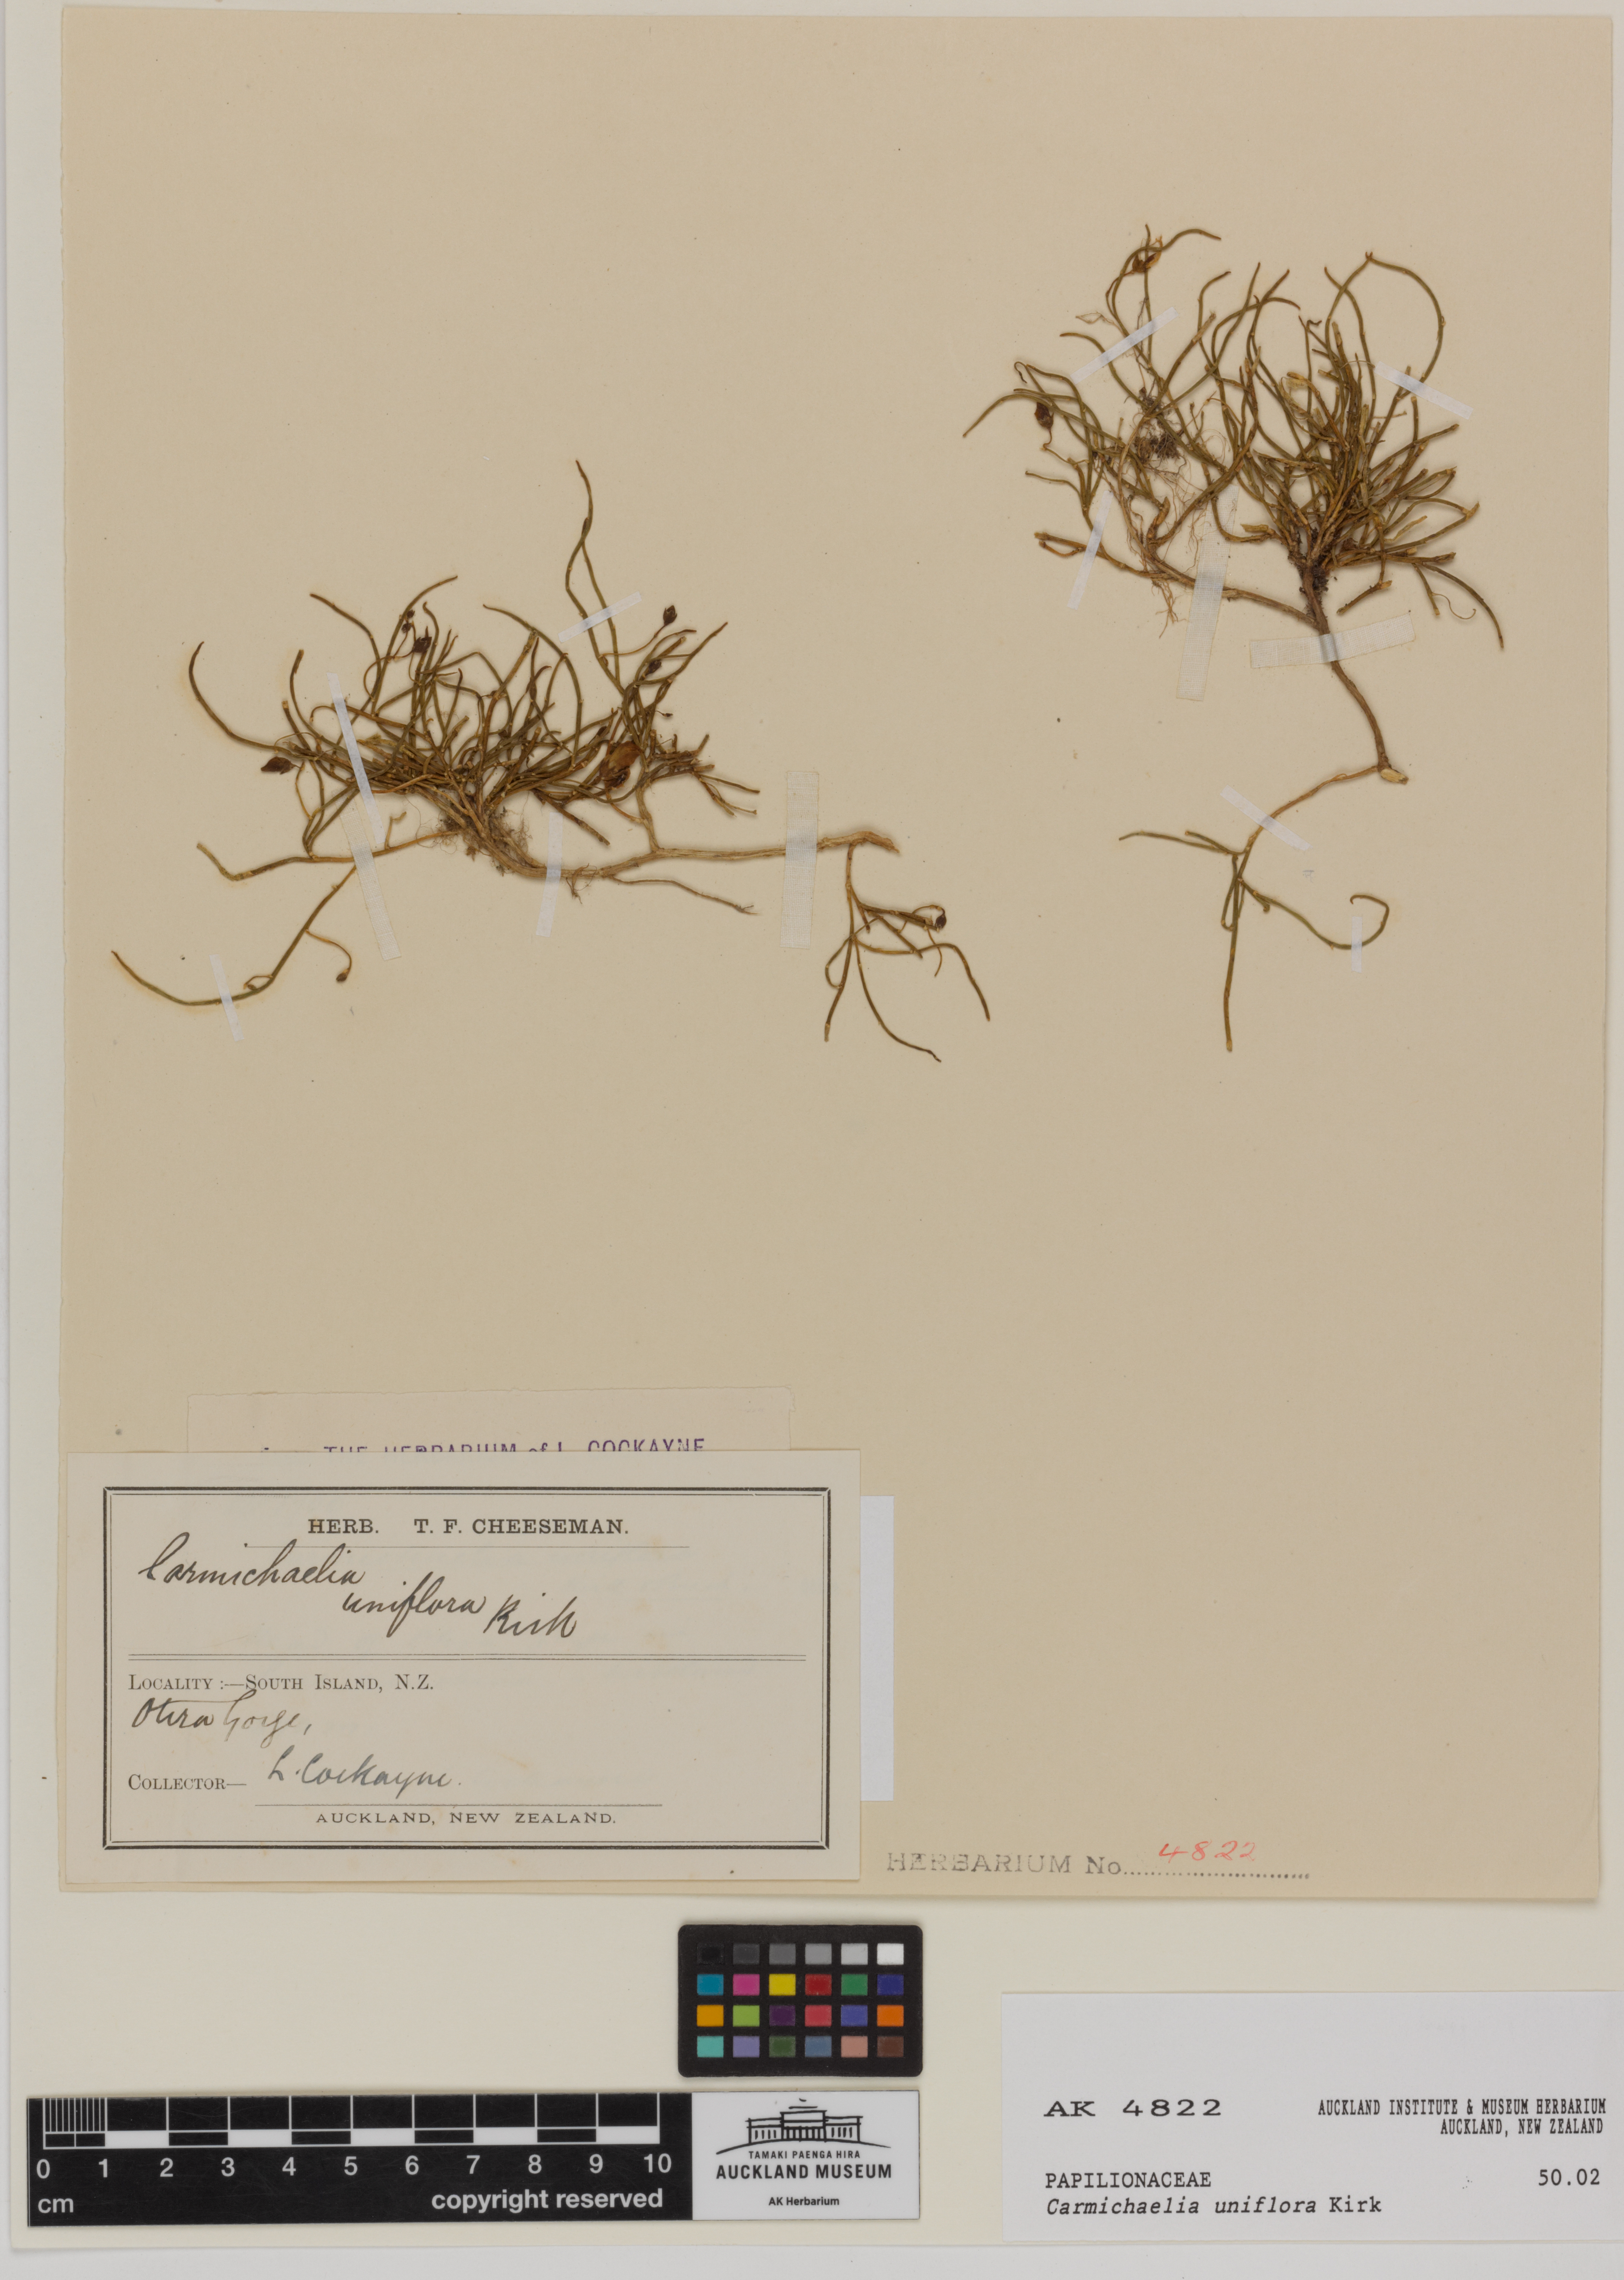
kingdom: Plantae
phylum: Tracheophyta
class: Magnoliopsida
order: Fabales
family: Fabaceae
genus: Carmichaelia
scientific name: Carmichaelia uniflora
